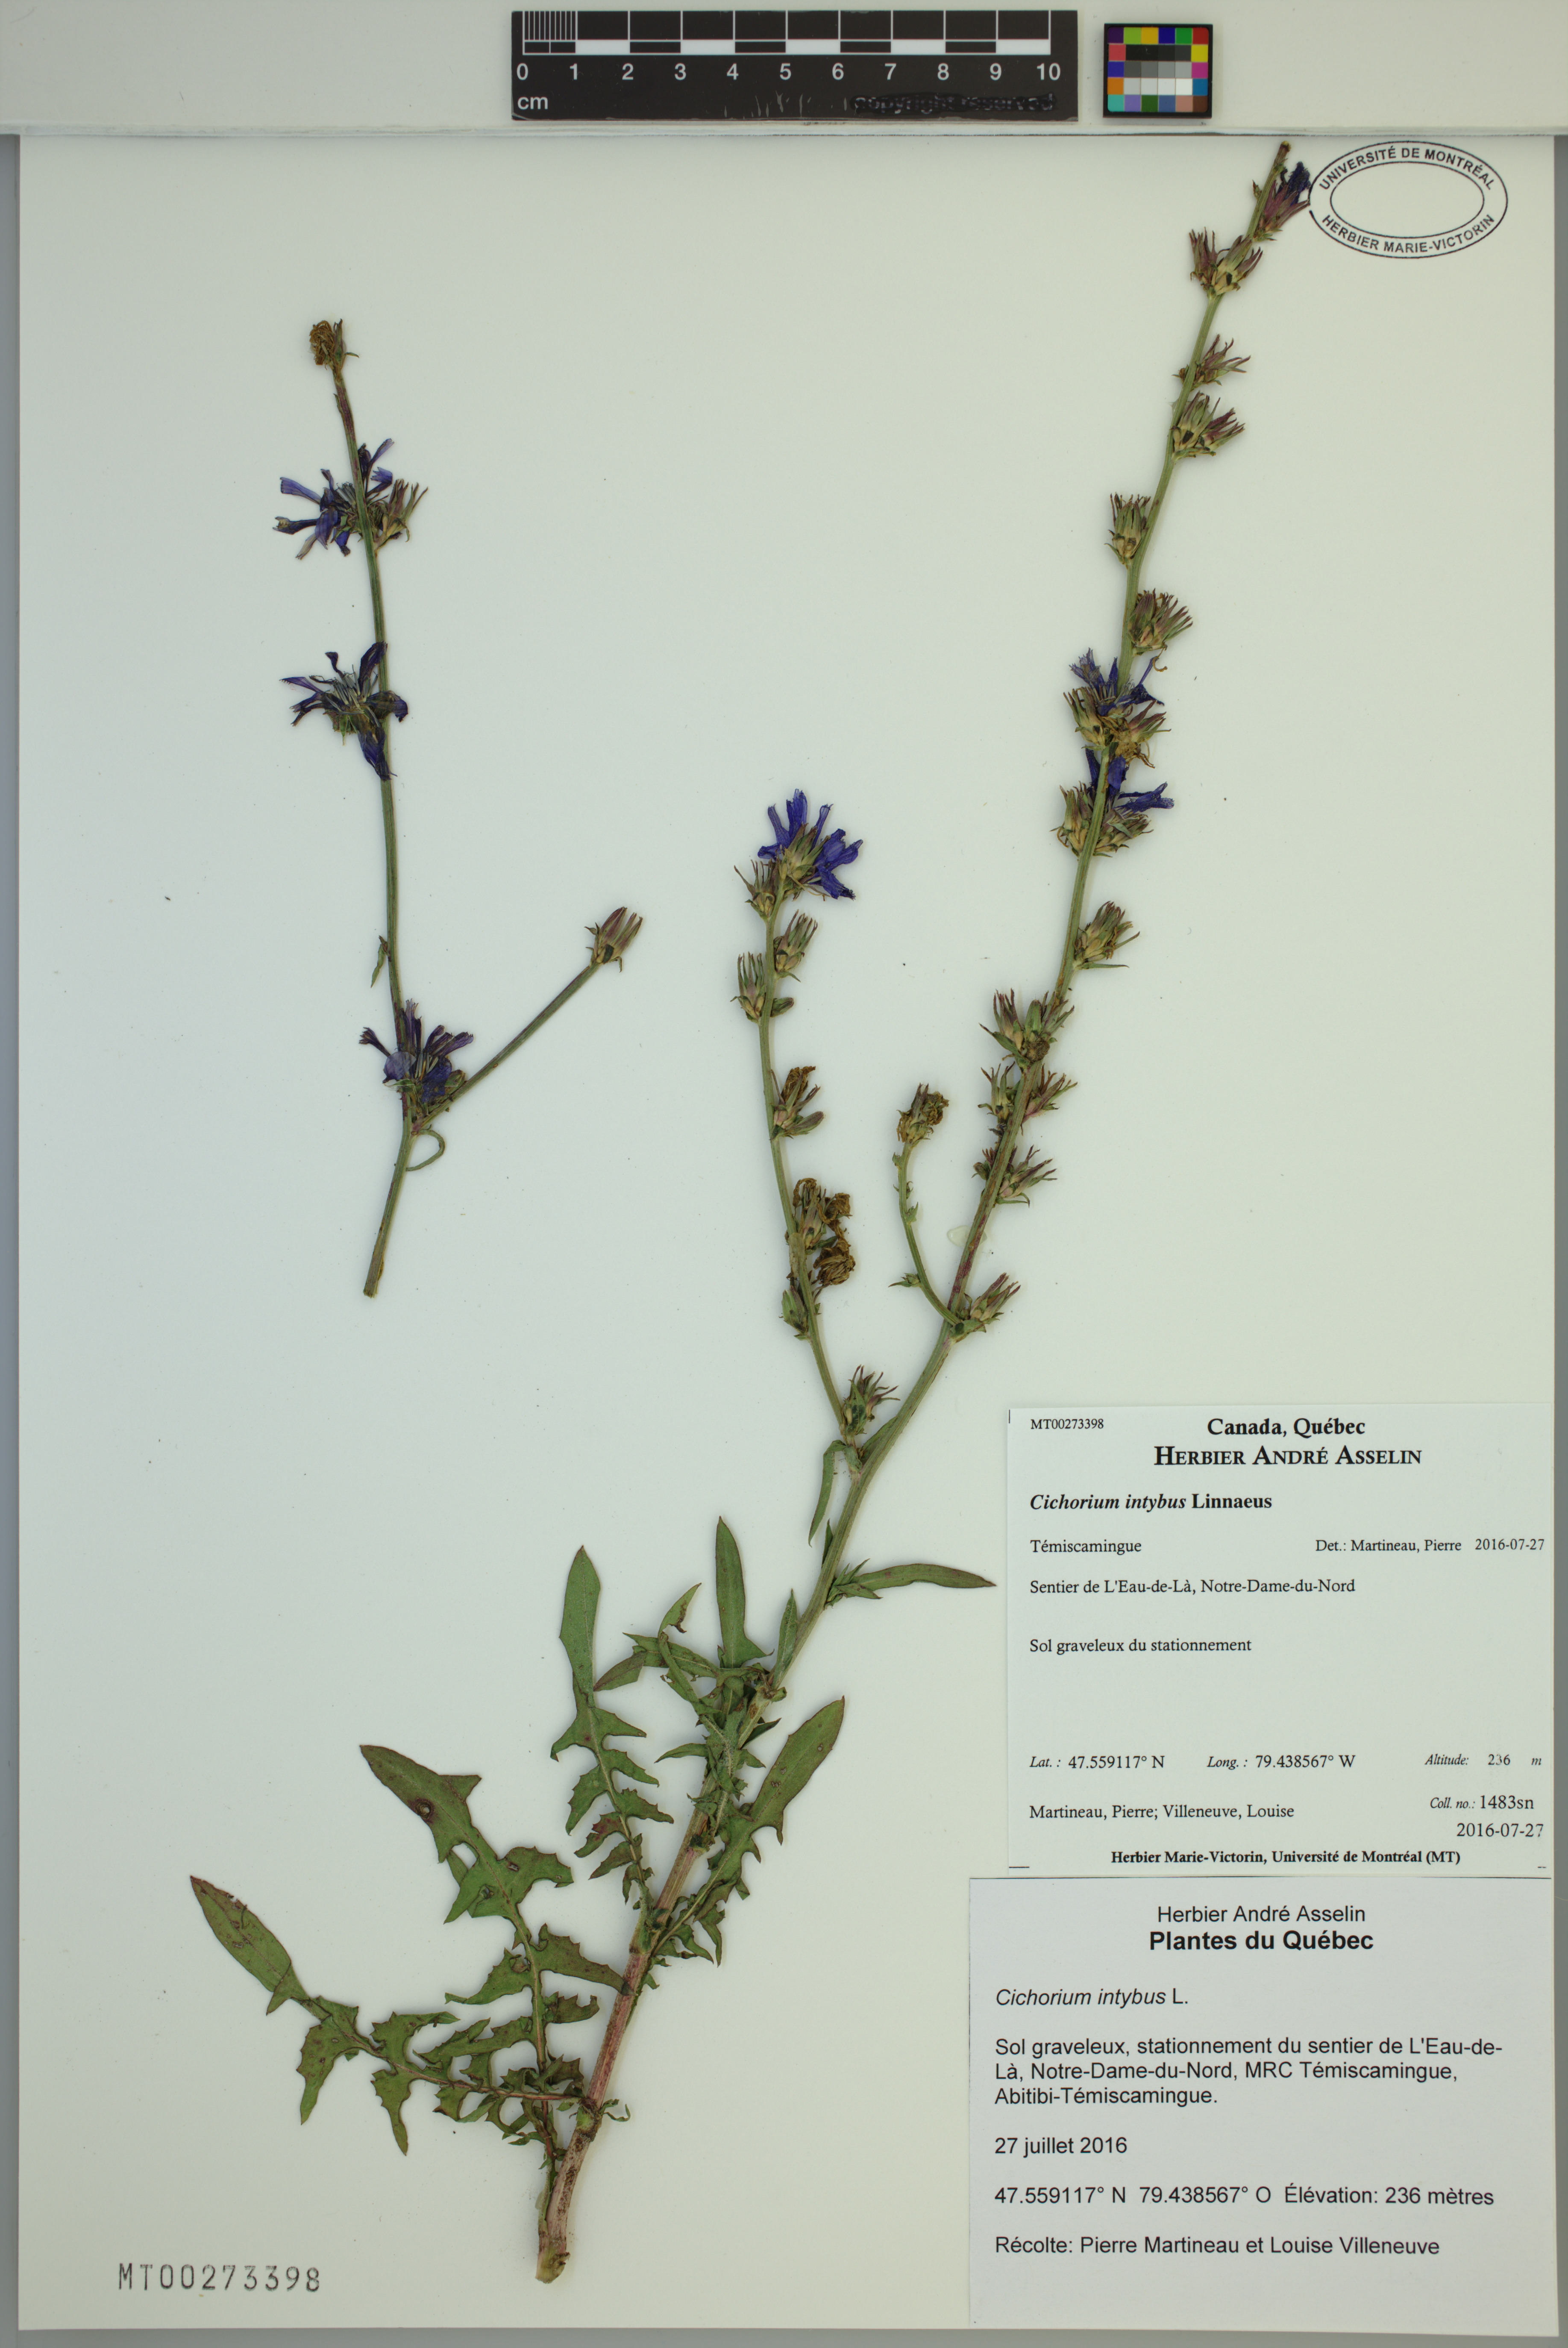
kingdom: Plantae
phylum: Tracheophyta
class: Magnoliopsida
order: Asterales
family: Asteraceae
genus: Cichorium
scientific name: Cichorium intybus
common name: Chicory
